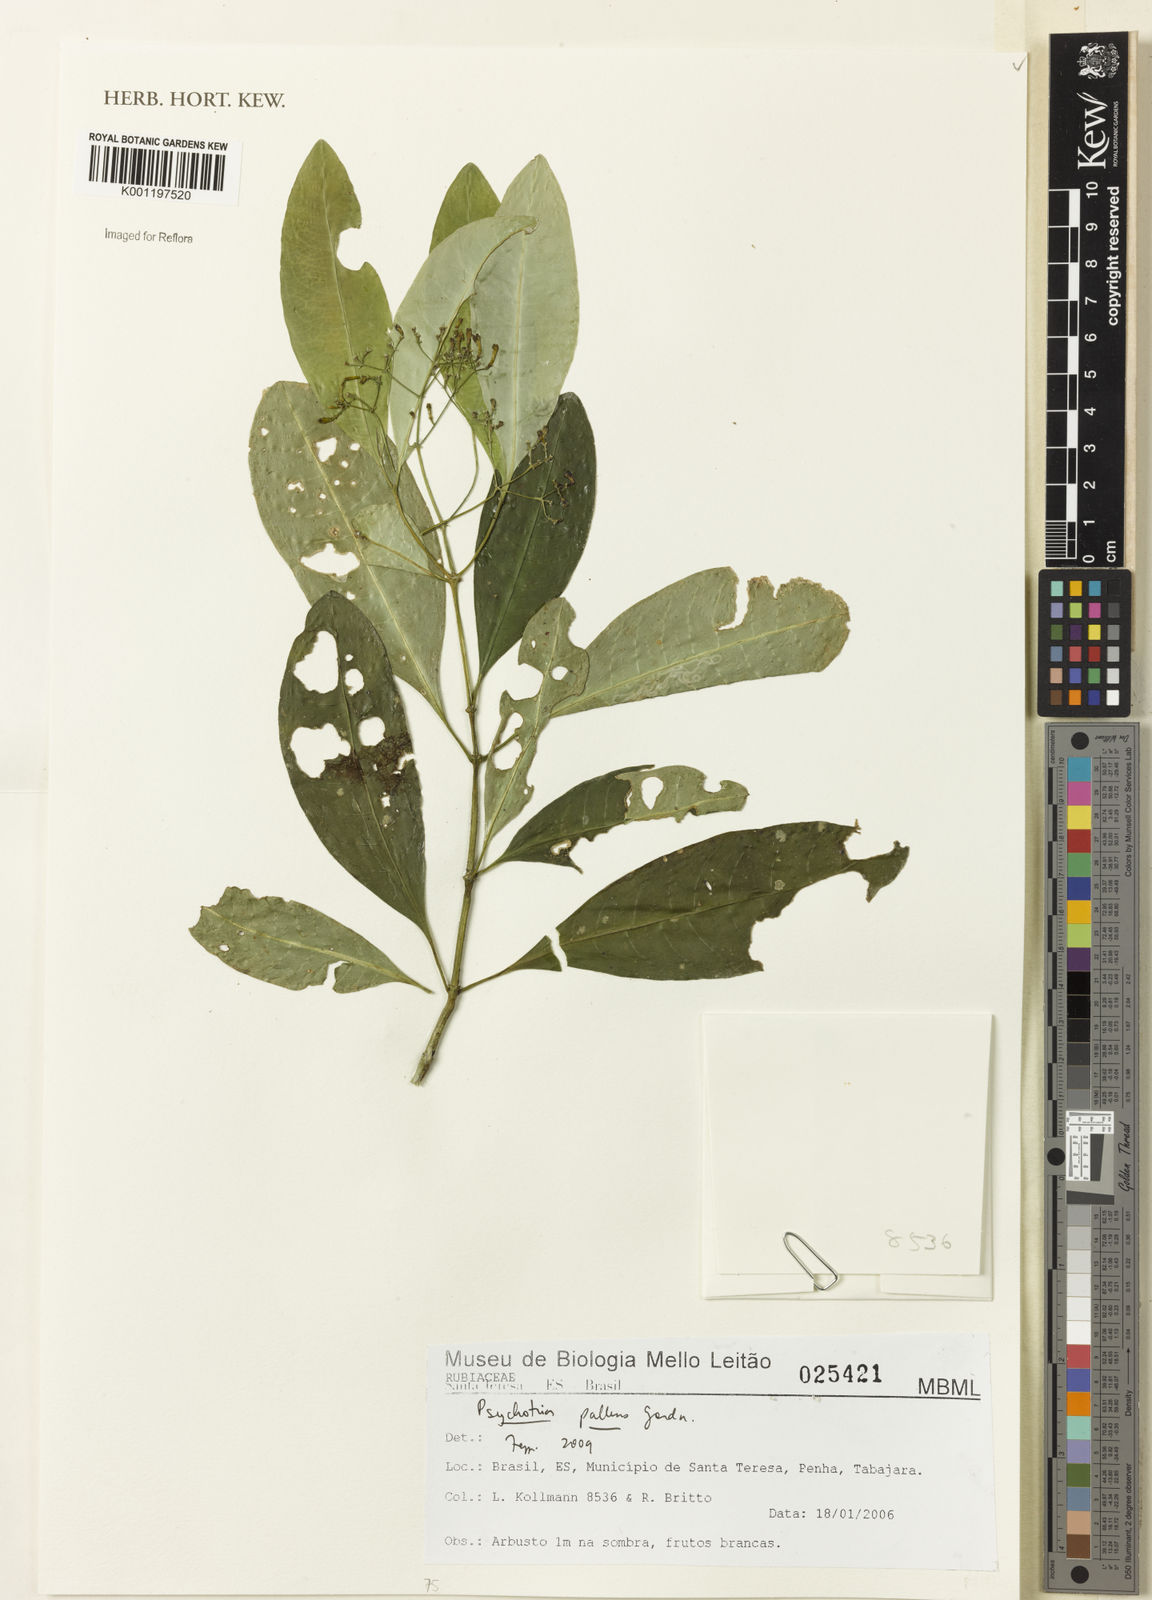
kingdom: Plantae
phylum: Tracheophyta
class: Magnoliopsida
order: Gentianales
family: Rubiaceae
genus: Psychotria
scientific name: Psychotria pallens
